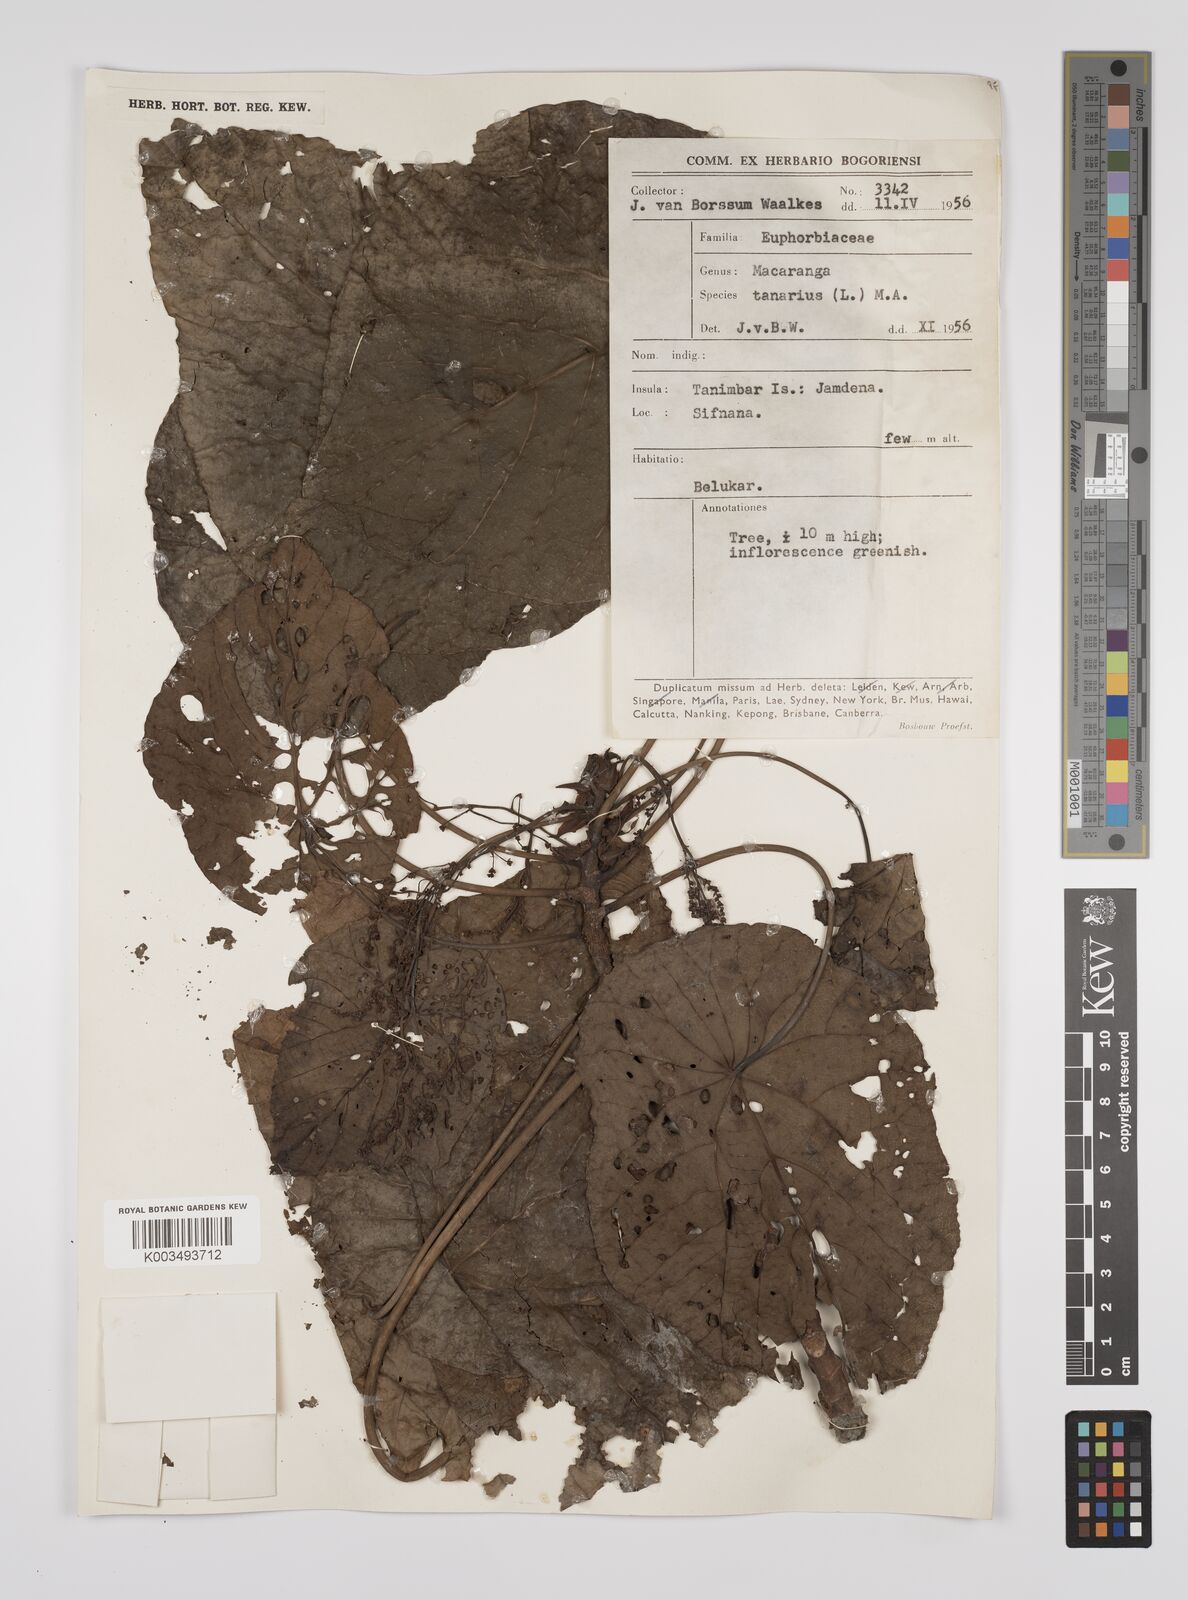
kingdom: Plantae
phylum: Tracheophyta
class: Magnoliopsida
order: Malpighiales
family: Euphorbiaceae
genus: Macaranga
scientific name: Macaranga tanarius
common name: Parasol leaf tree
